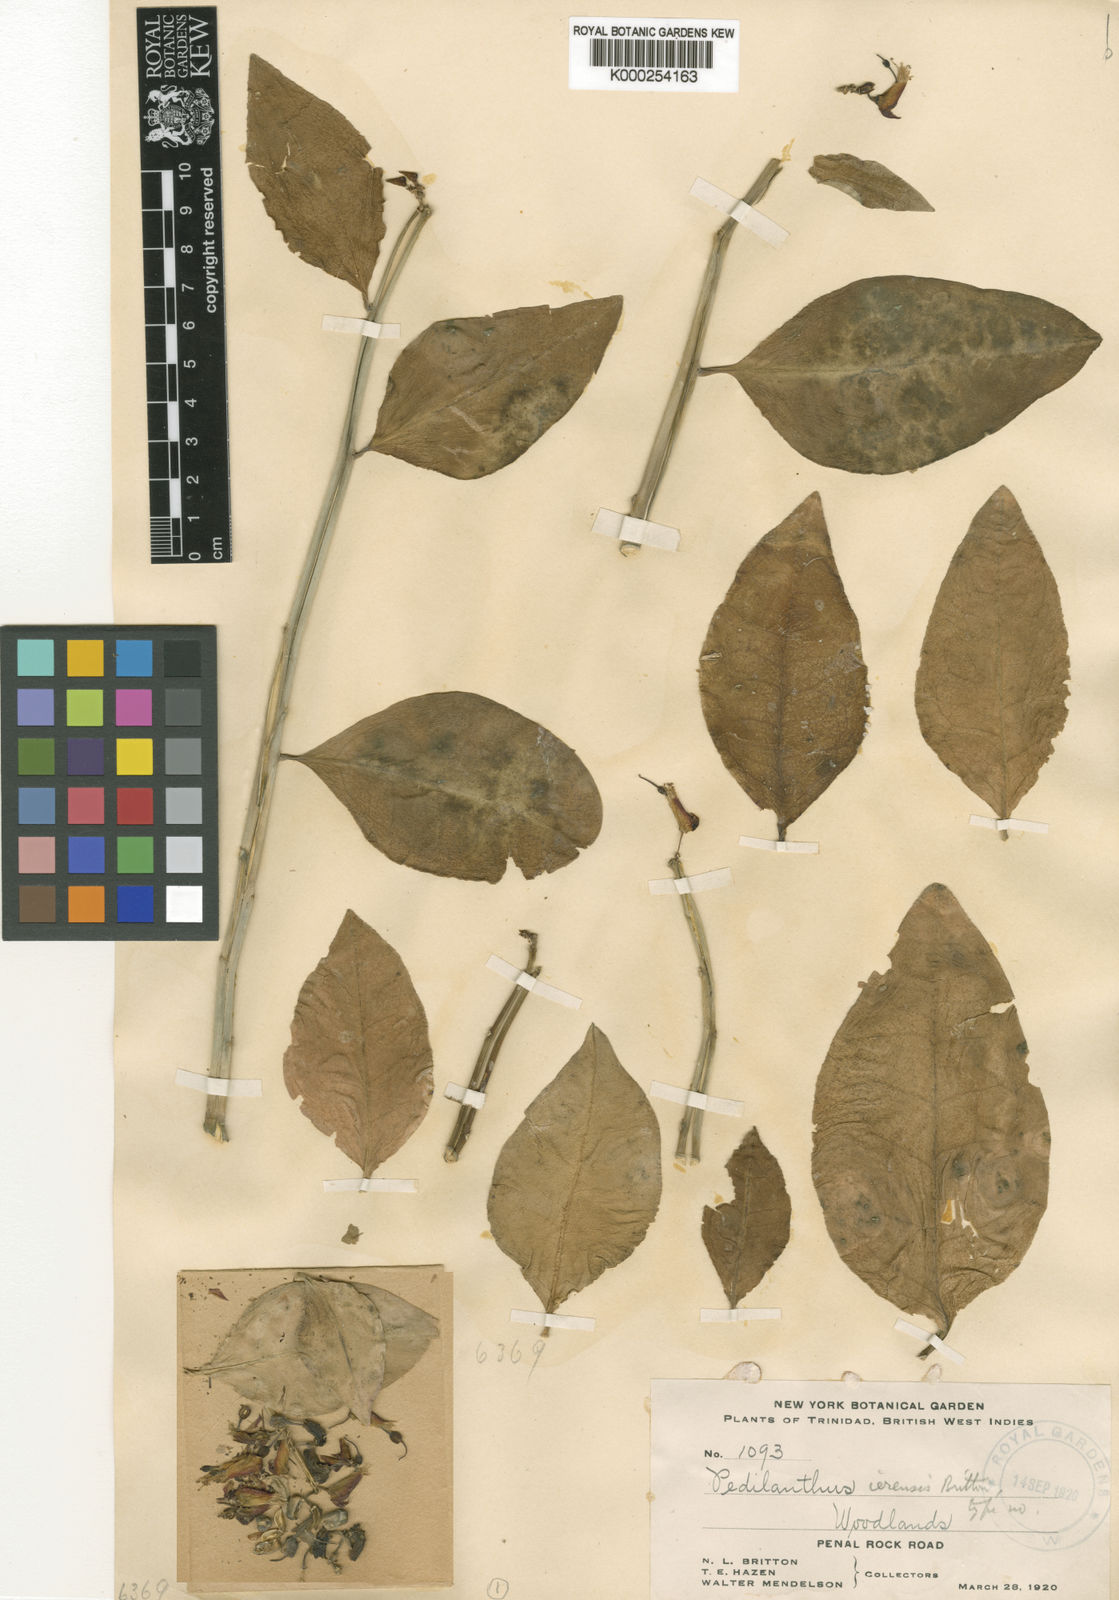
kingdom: Plantae
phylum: Tracheophyta
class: Magnoliopsida
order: Malpighiales
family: Euphorbiaceae
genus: Euphorbia
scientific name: Euphorbia tithymaloides
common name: Slipperplant
